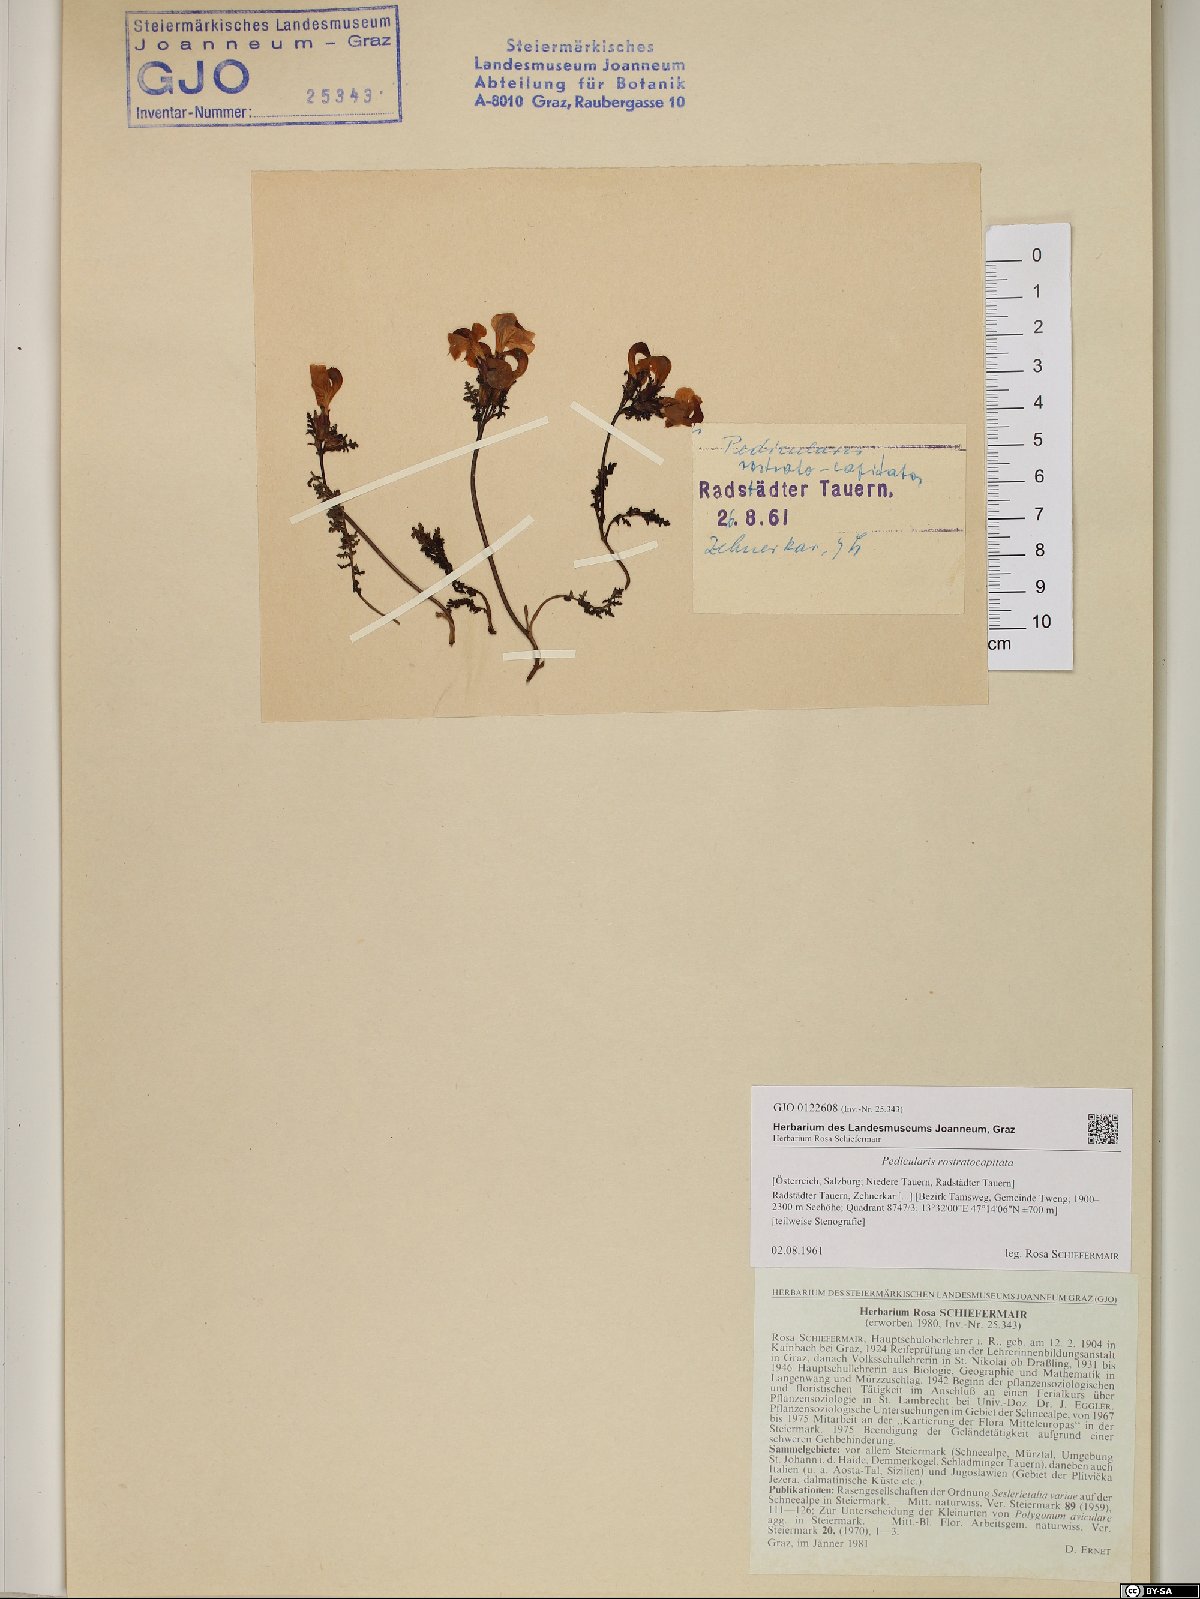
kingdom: Plantae
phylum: Tracheophyta
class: Magnoliopsida
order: Lamiales
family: Orobanchaceae
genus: Pedicularis
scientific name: Pedicularis rostratocapitata
